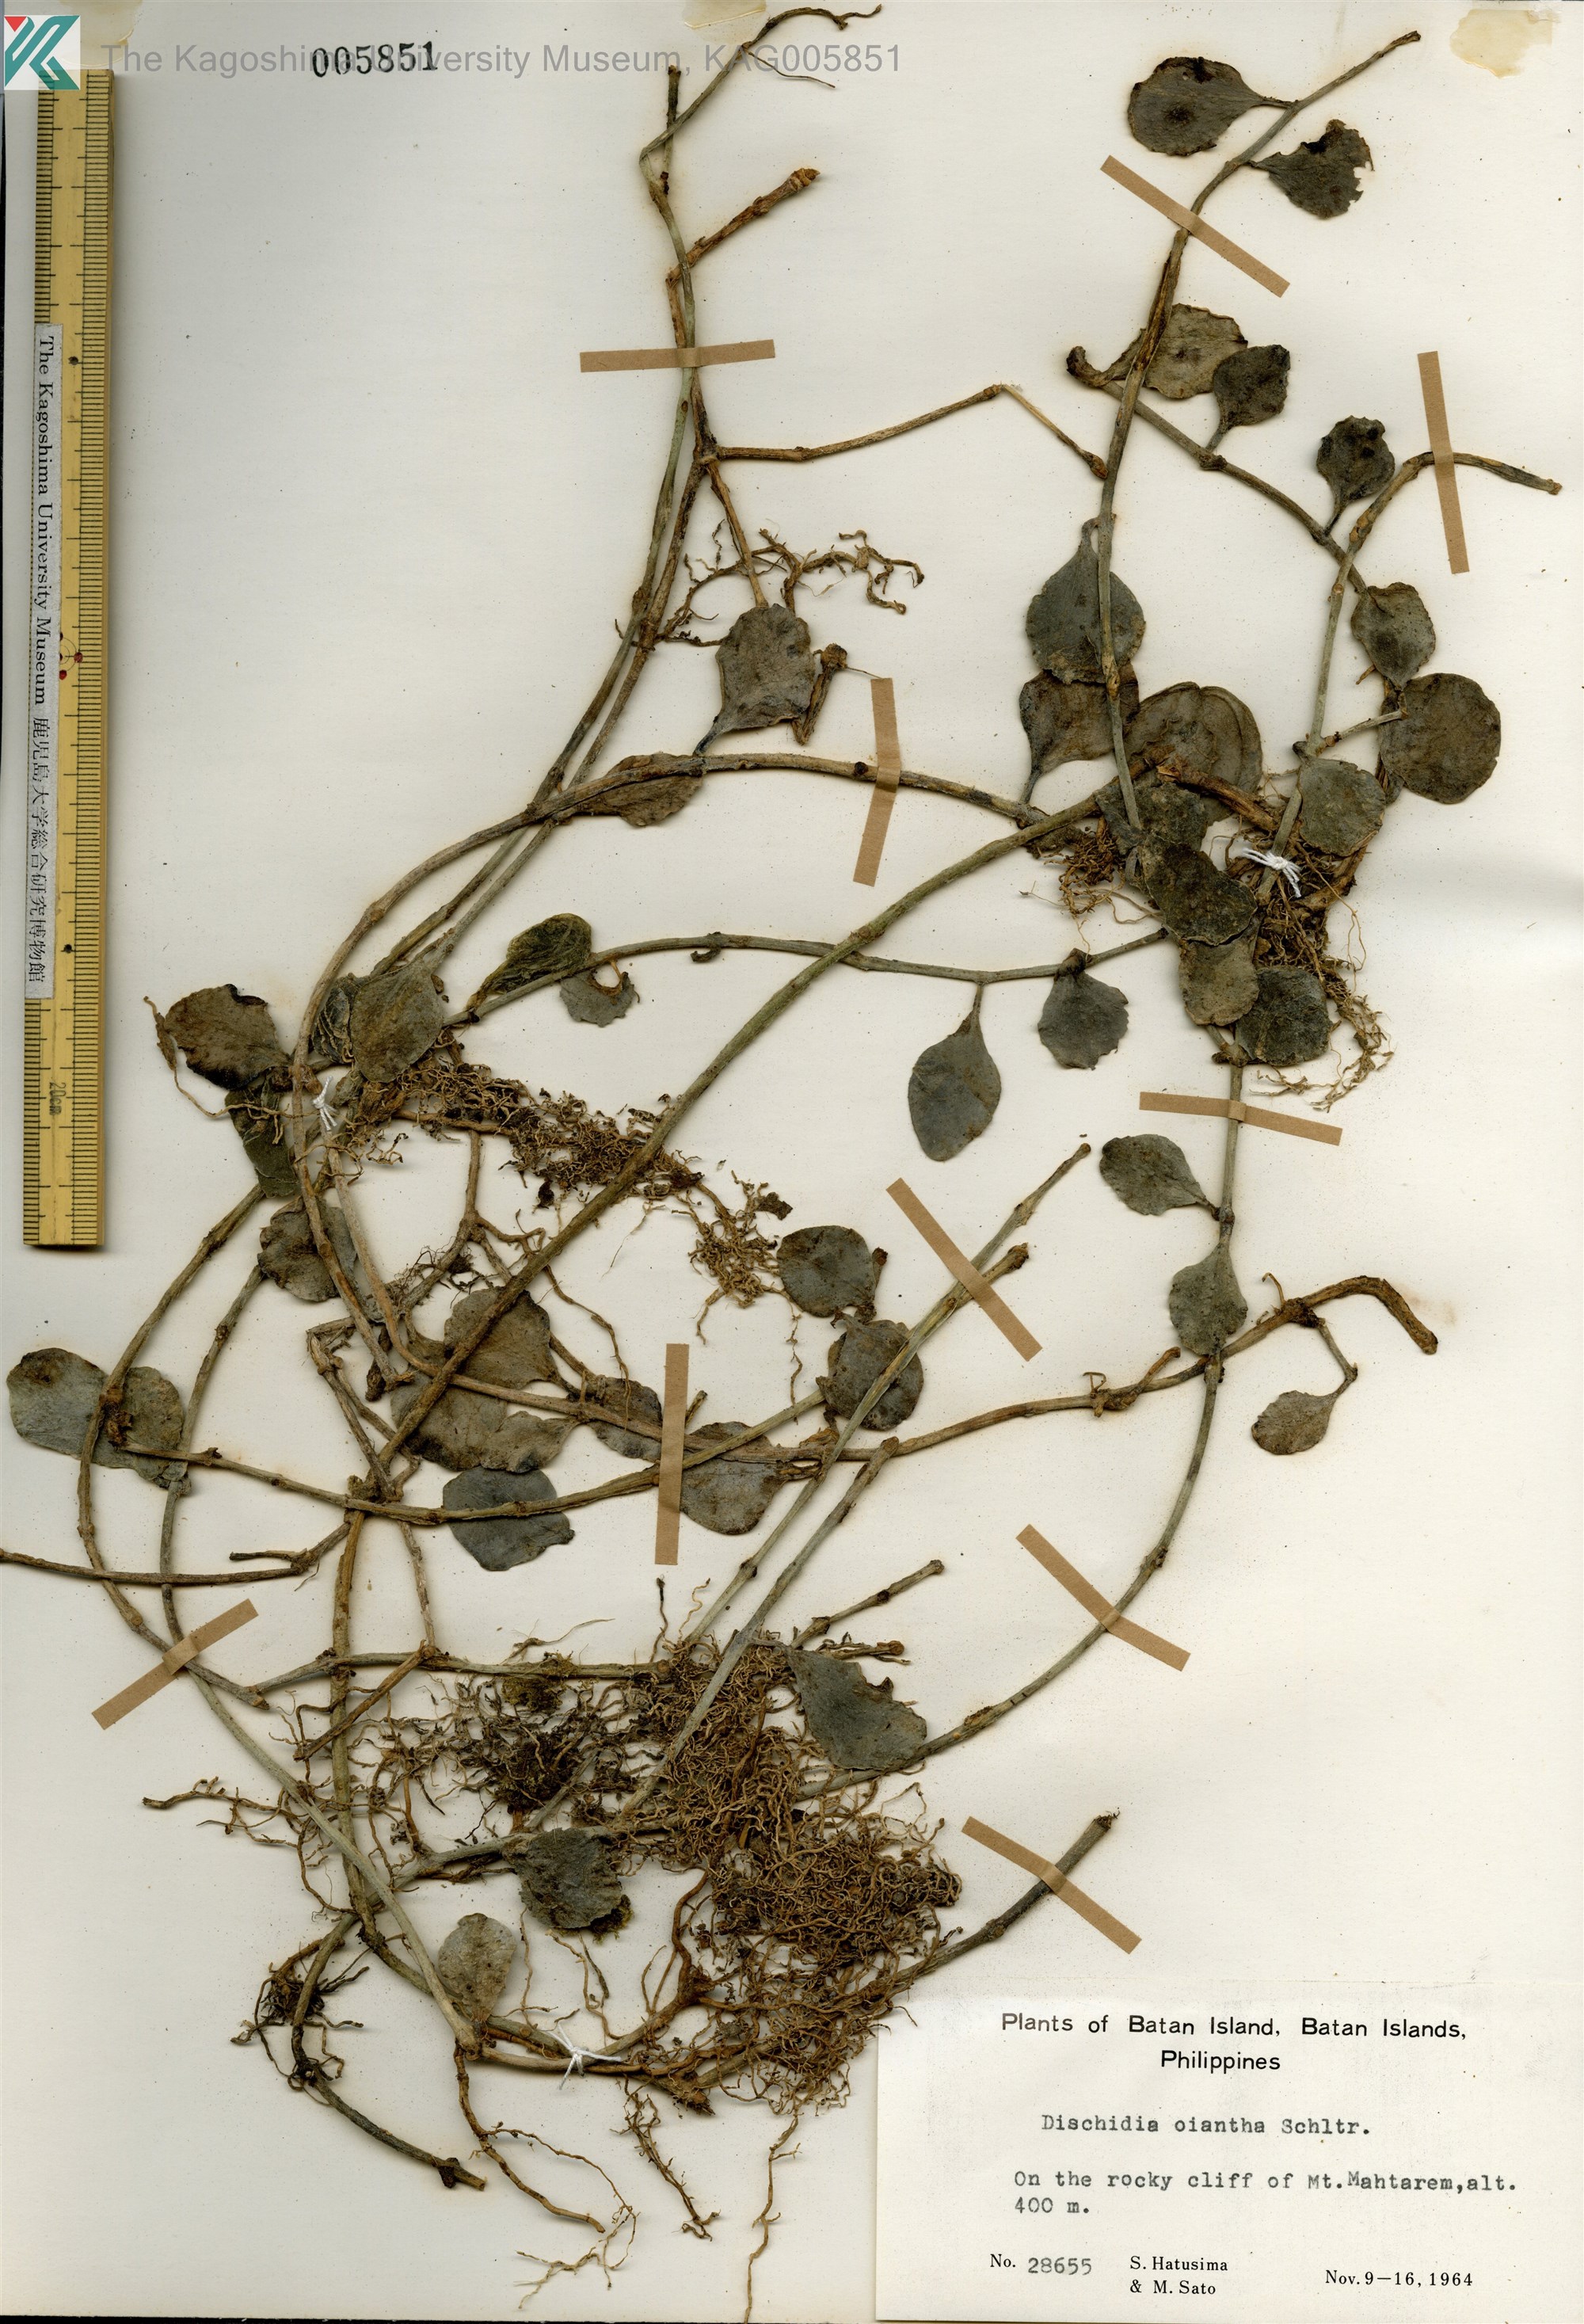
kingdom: Plantae
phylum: Tracheophyta
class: Magnoliopsida
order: Gentianales
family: Apocynaceae
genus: Dischidia
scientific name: Dischidia oiantha
